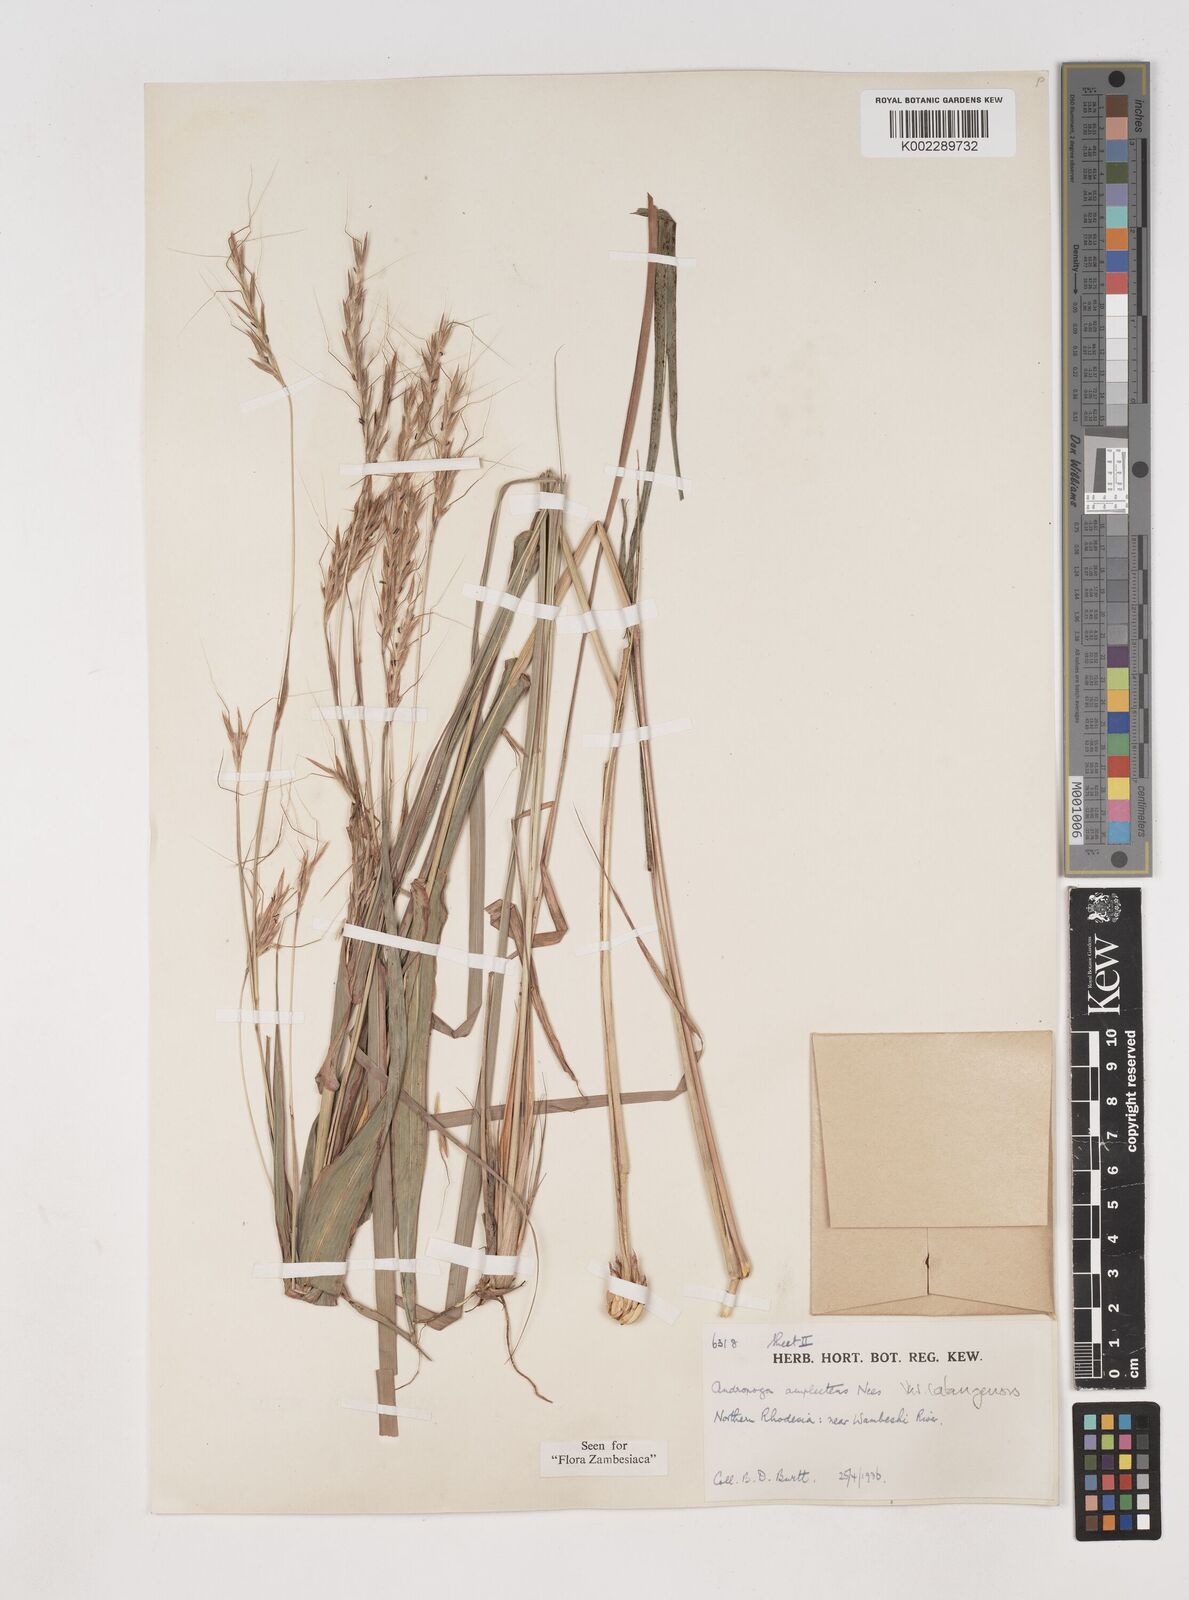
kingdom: Plantae
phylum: Tracheophyta
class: Liliopsida
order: Poales
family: Poaceae
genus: Diheteropogon
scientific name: Diheteropogon amplectens
